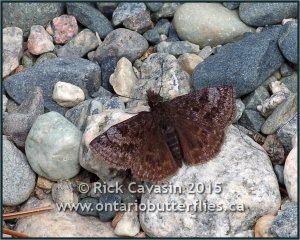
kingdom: Animalia
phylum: Arthropoda
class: Insecta
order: Lepidoptera
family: Hesperiidae
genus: Erynnis
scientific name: Erynnis icelus
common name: Dreamy Duskywing
